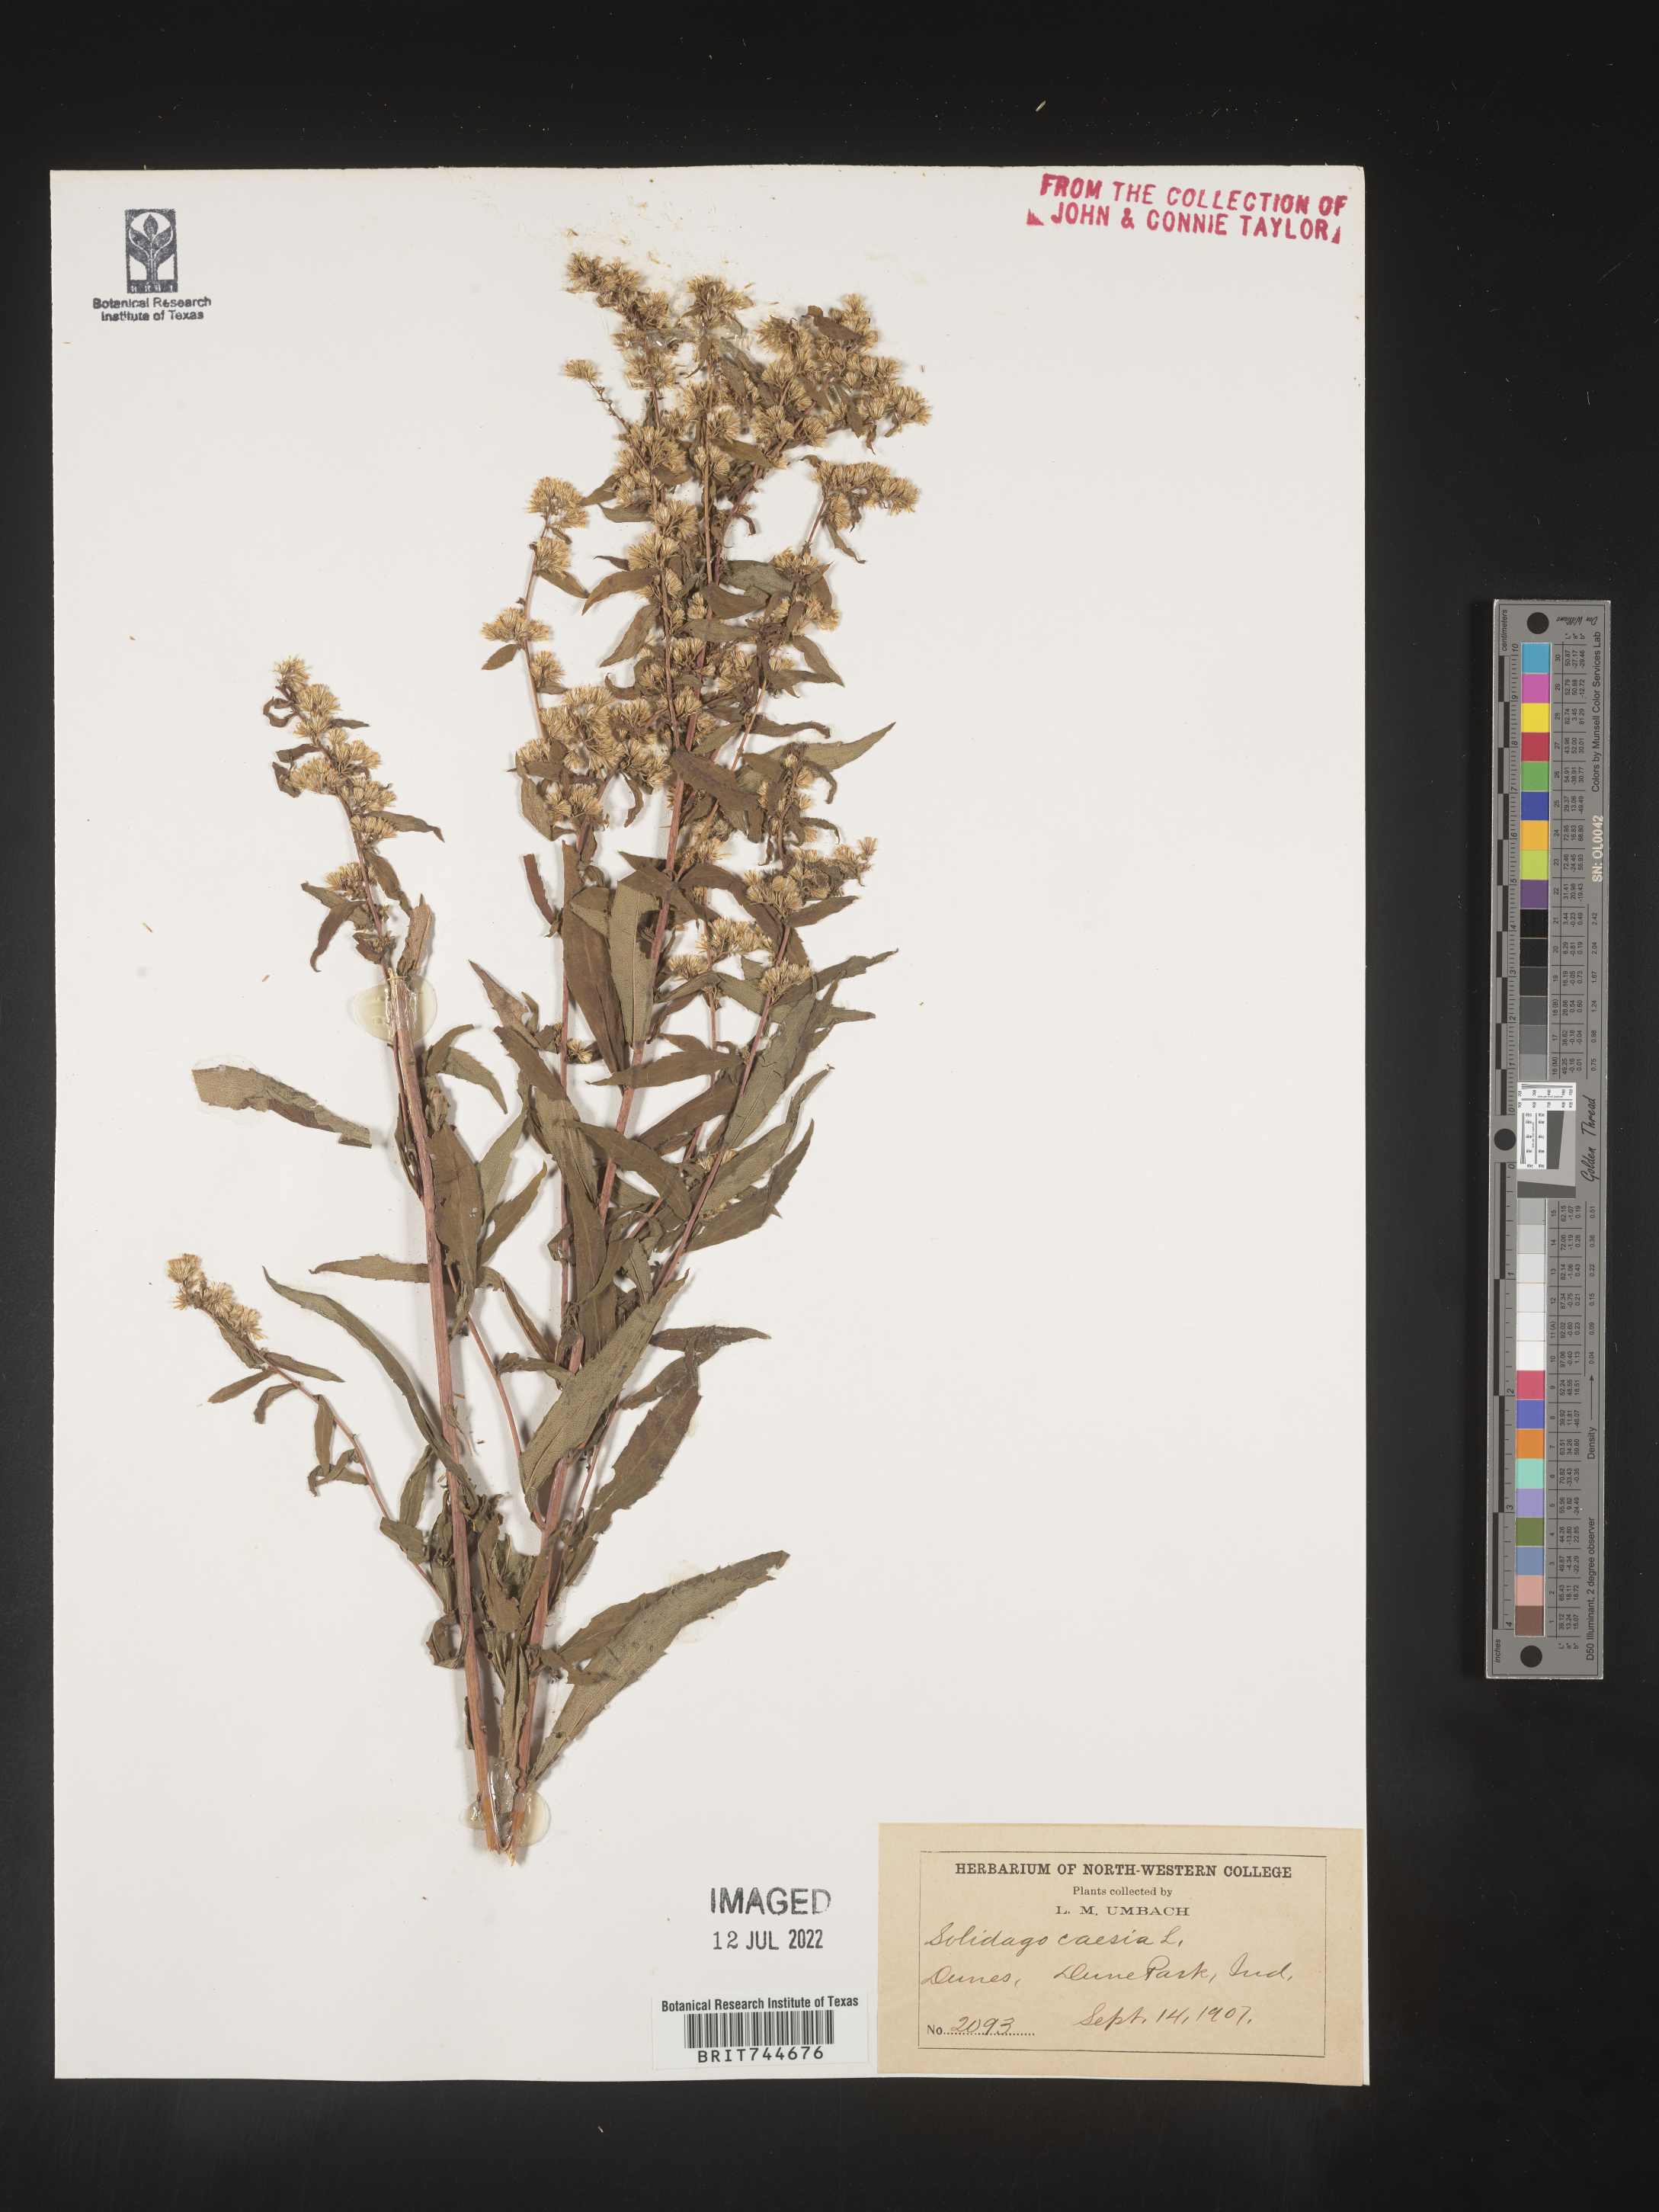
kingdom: Plantae
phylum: Tracheophyta
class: Magnoliopsida
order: Asterales
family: Asteraceae
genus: Solidago
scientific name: Solidago caesia
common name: Woodland goldenrod
